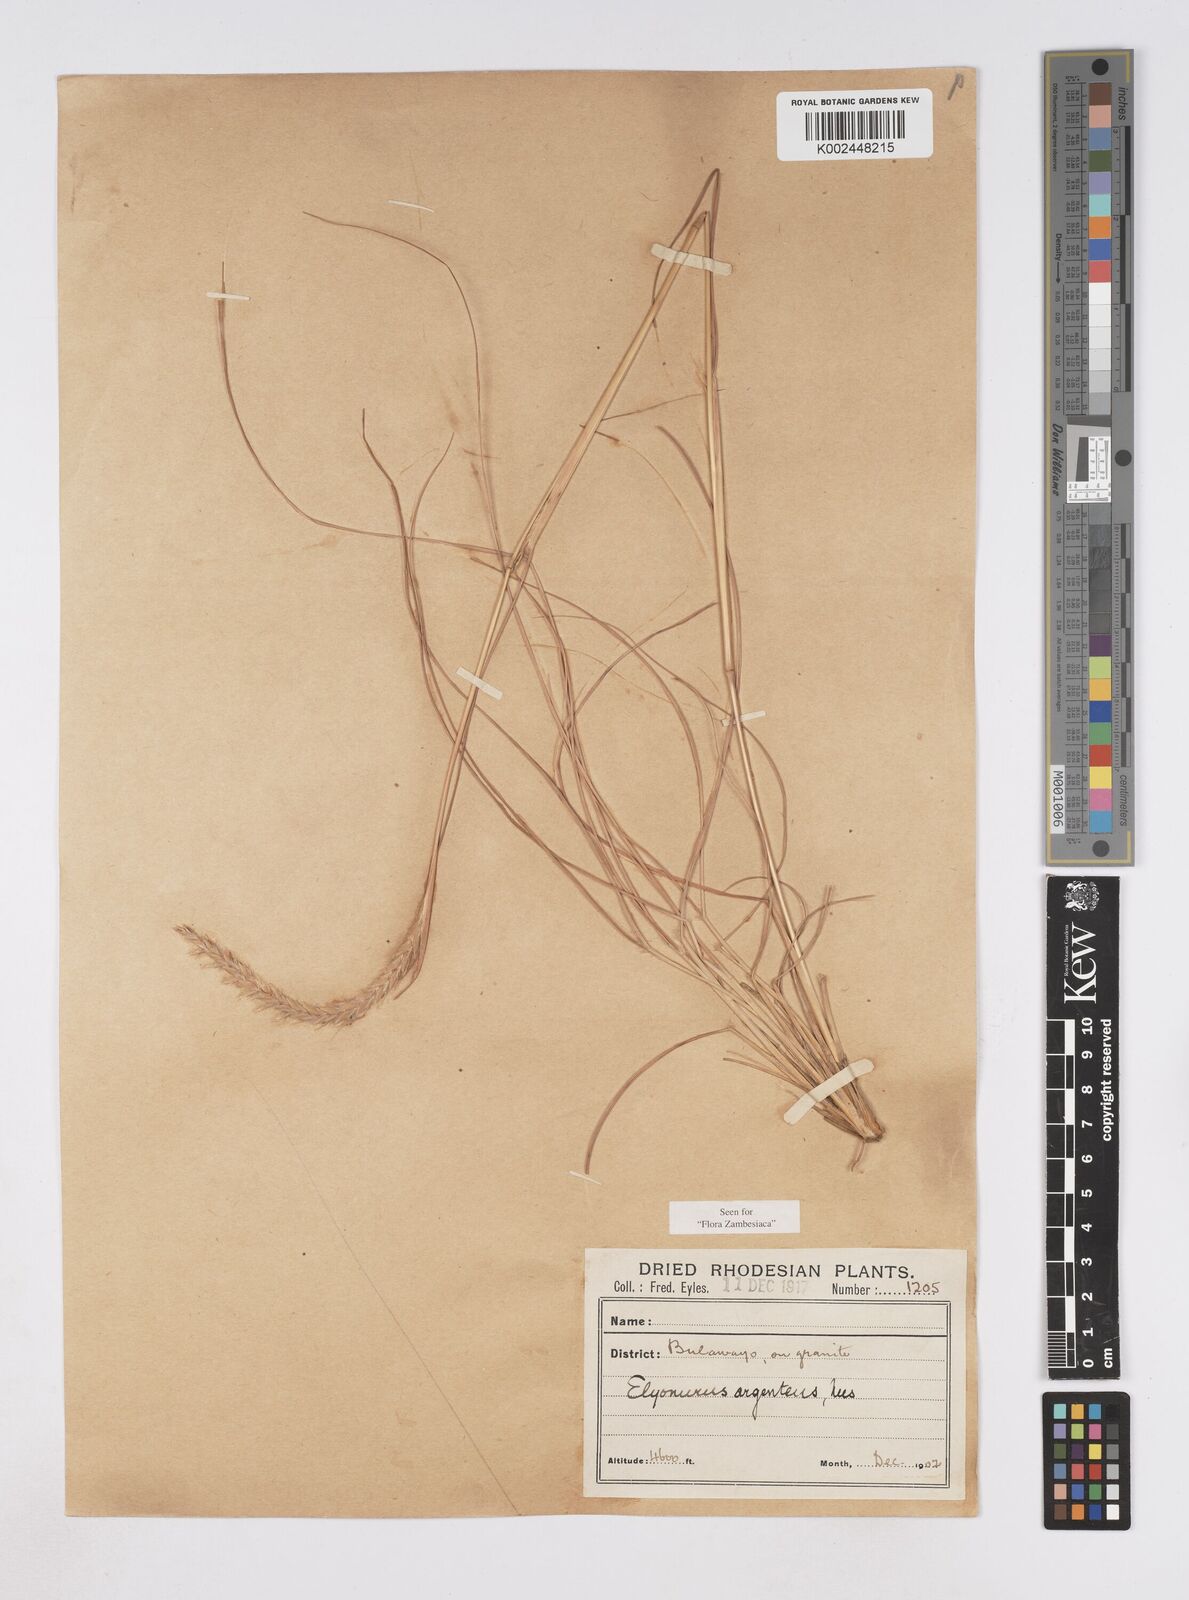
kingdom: Plantae
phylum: Tracheophyta
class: Liliopsida
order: Poales
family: Poaceae
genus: Elionurus
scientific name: Elionurus muticus
